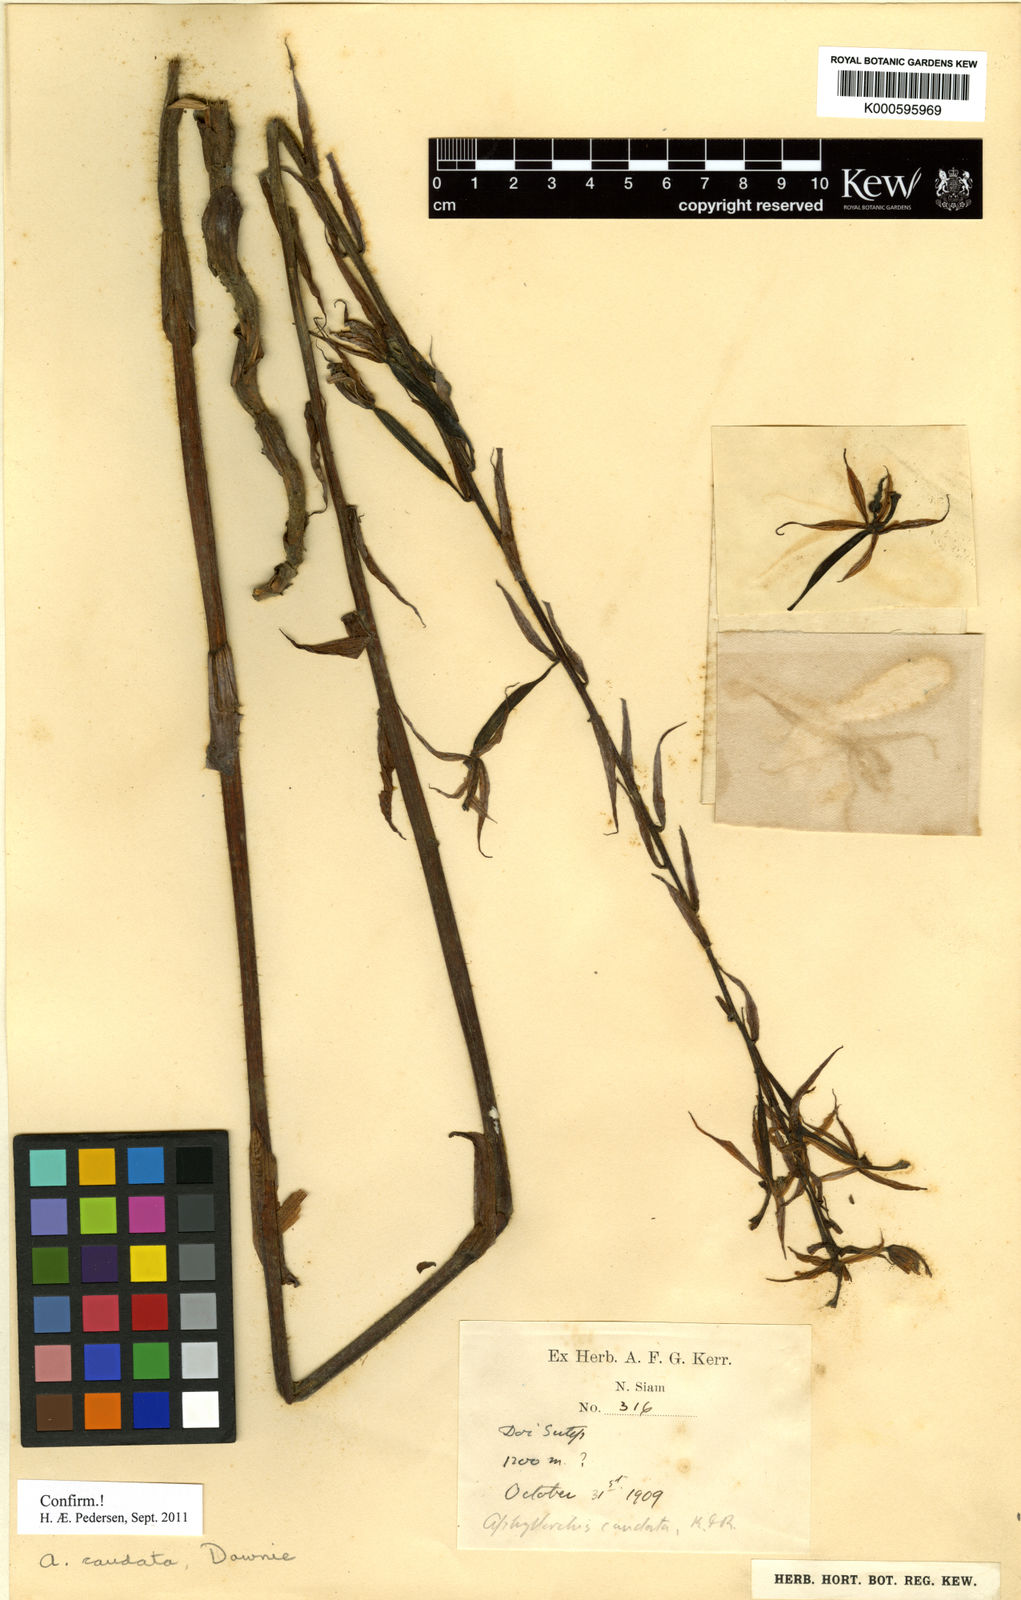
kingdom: Plantae
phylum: Tracheophyta
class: Liliopsida
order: Asparagales
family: Orchidaceae
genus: Aphyllorchis
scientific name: Aphyllorchis caudata
